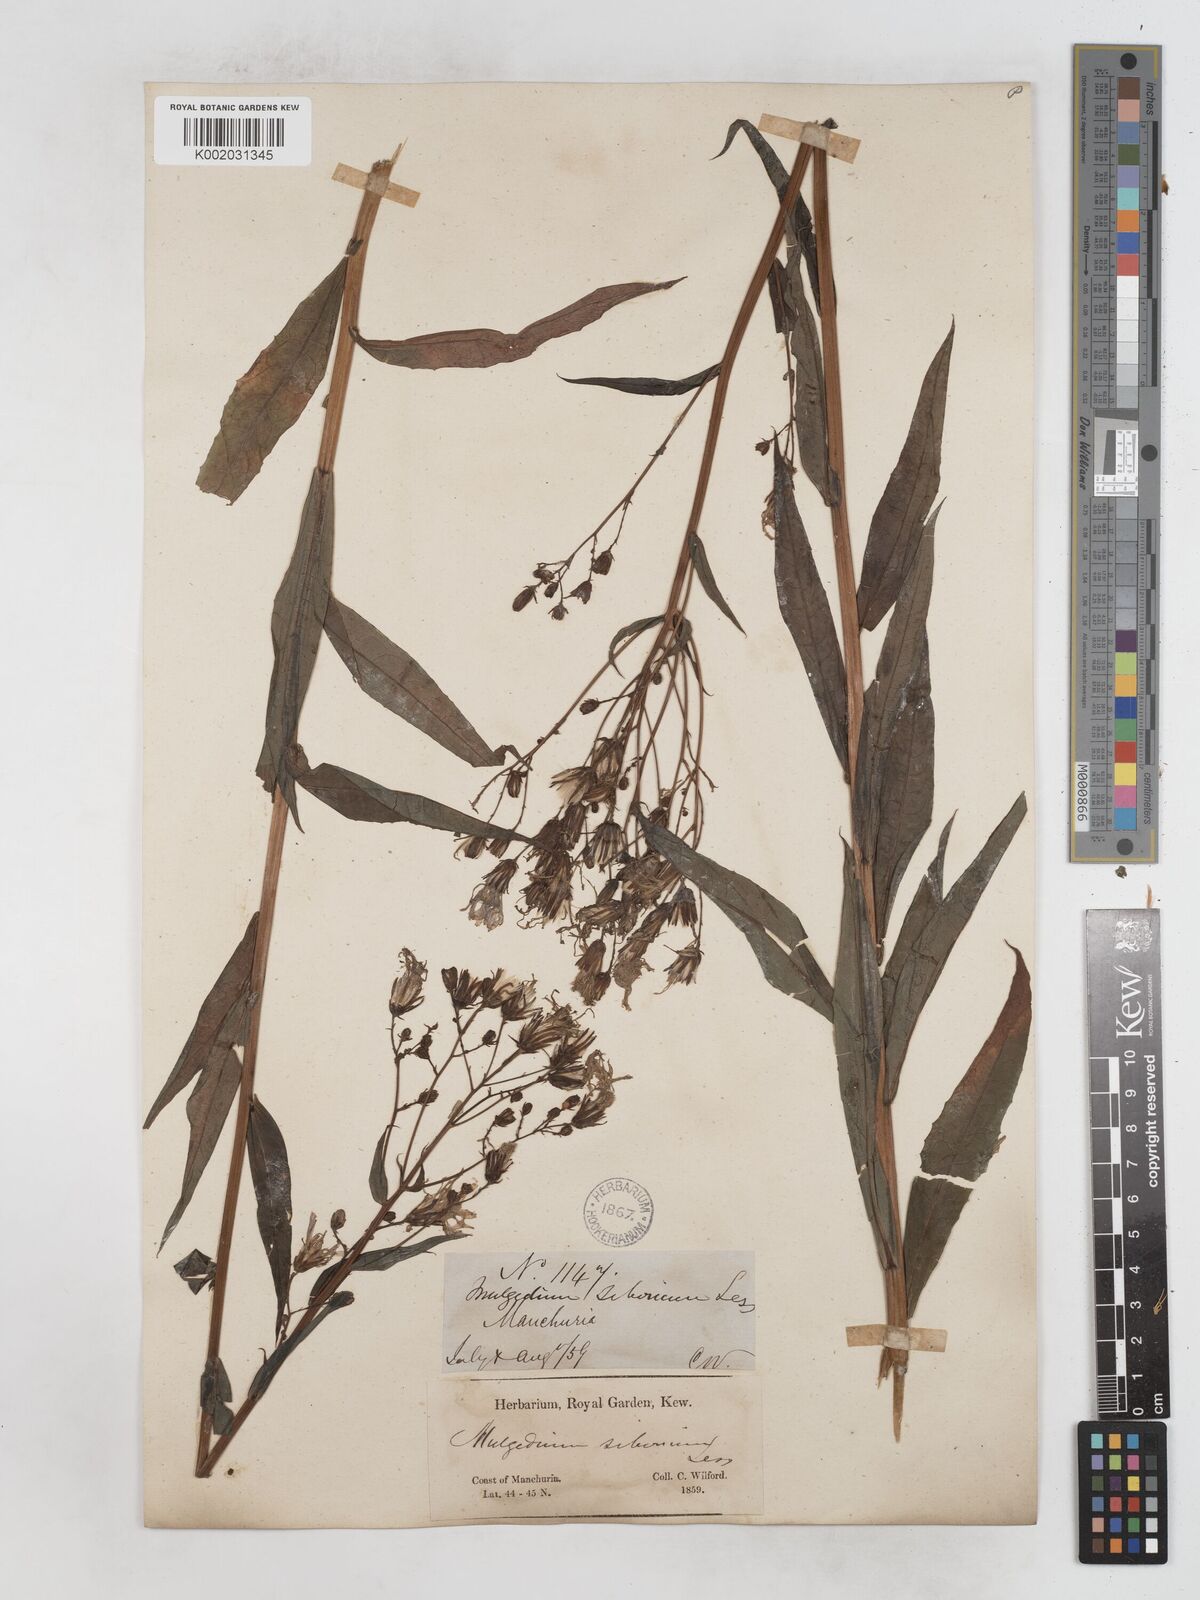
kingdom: Plantae
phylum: Tracheophyta
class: Magnoliopsida
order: Asterales
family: Asteraceae
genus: Lactuca
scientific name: Lactuca sibirica
